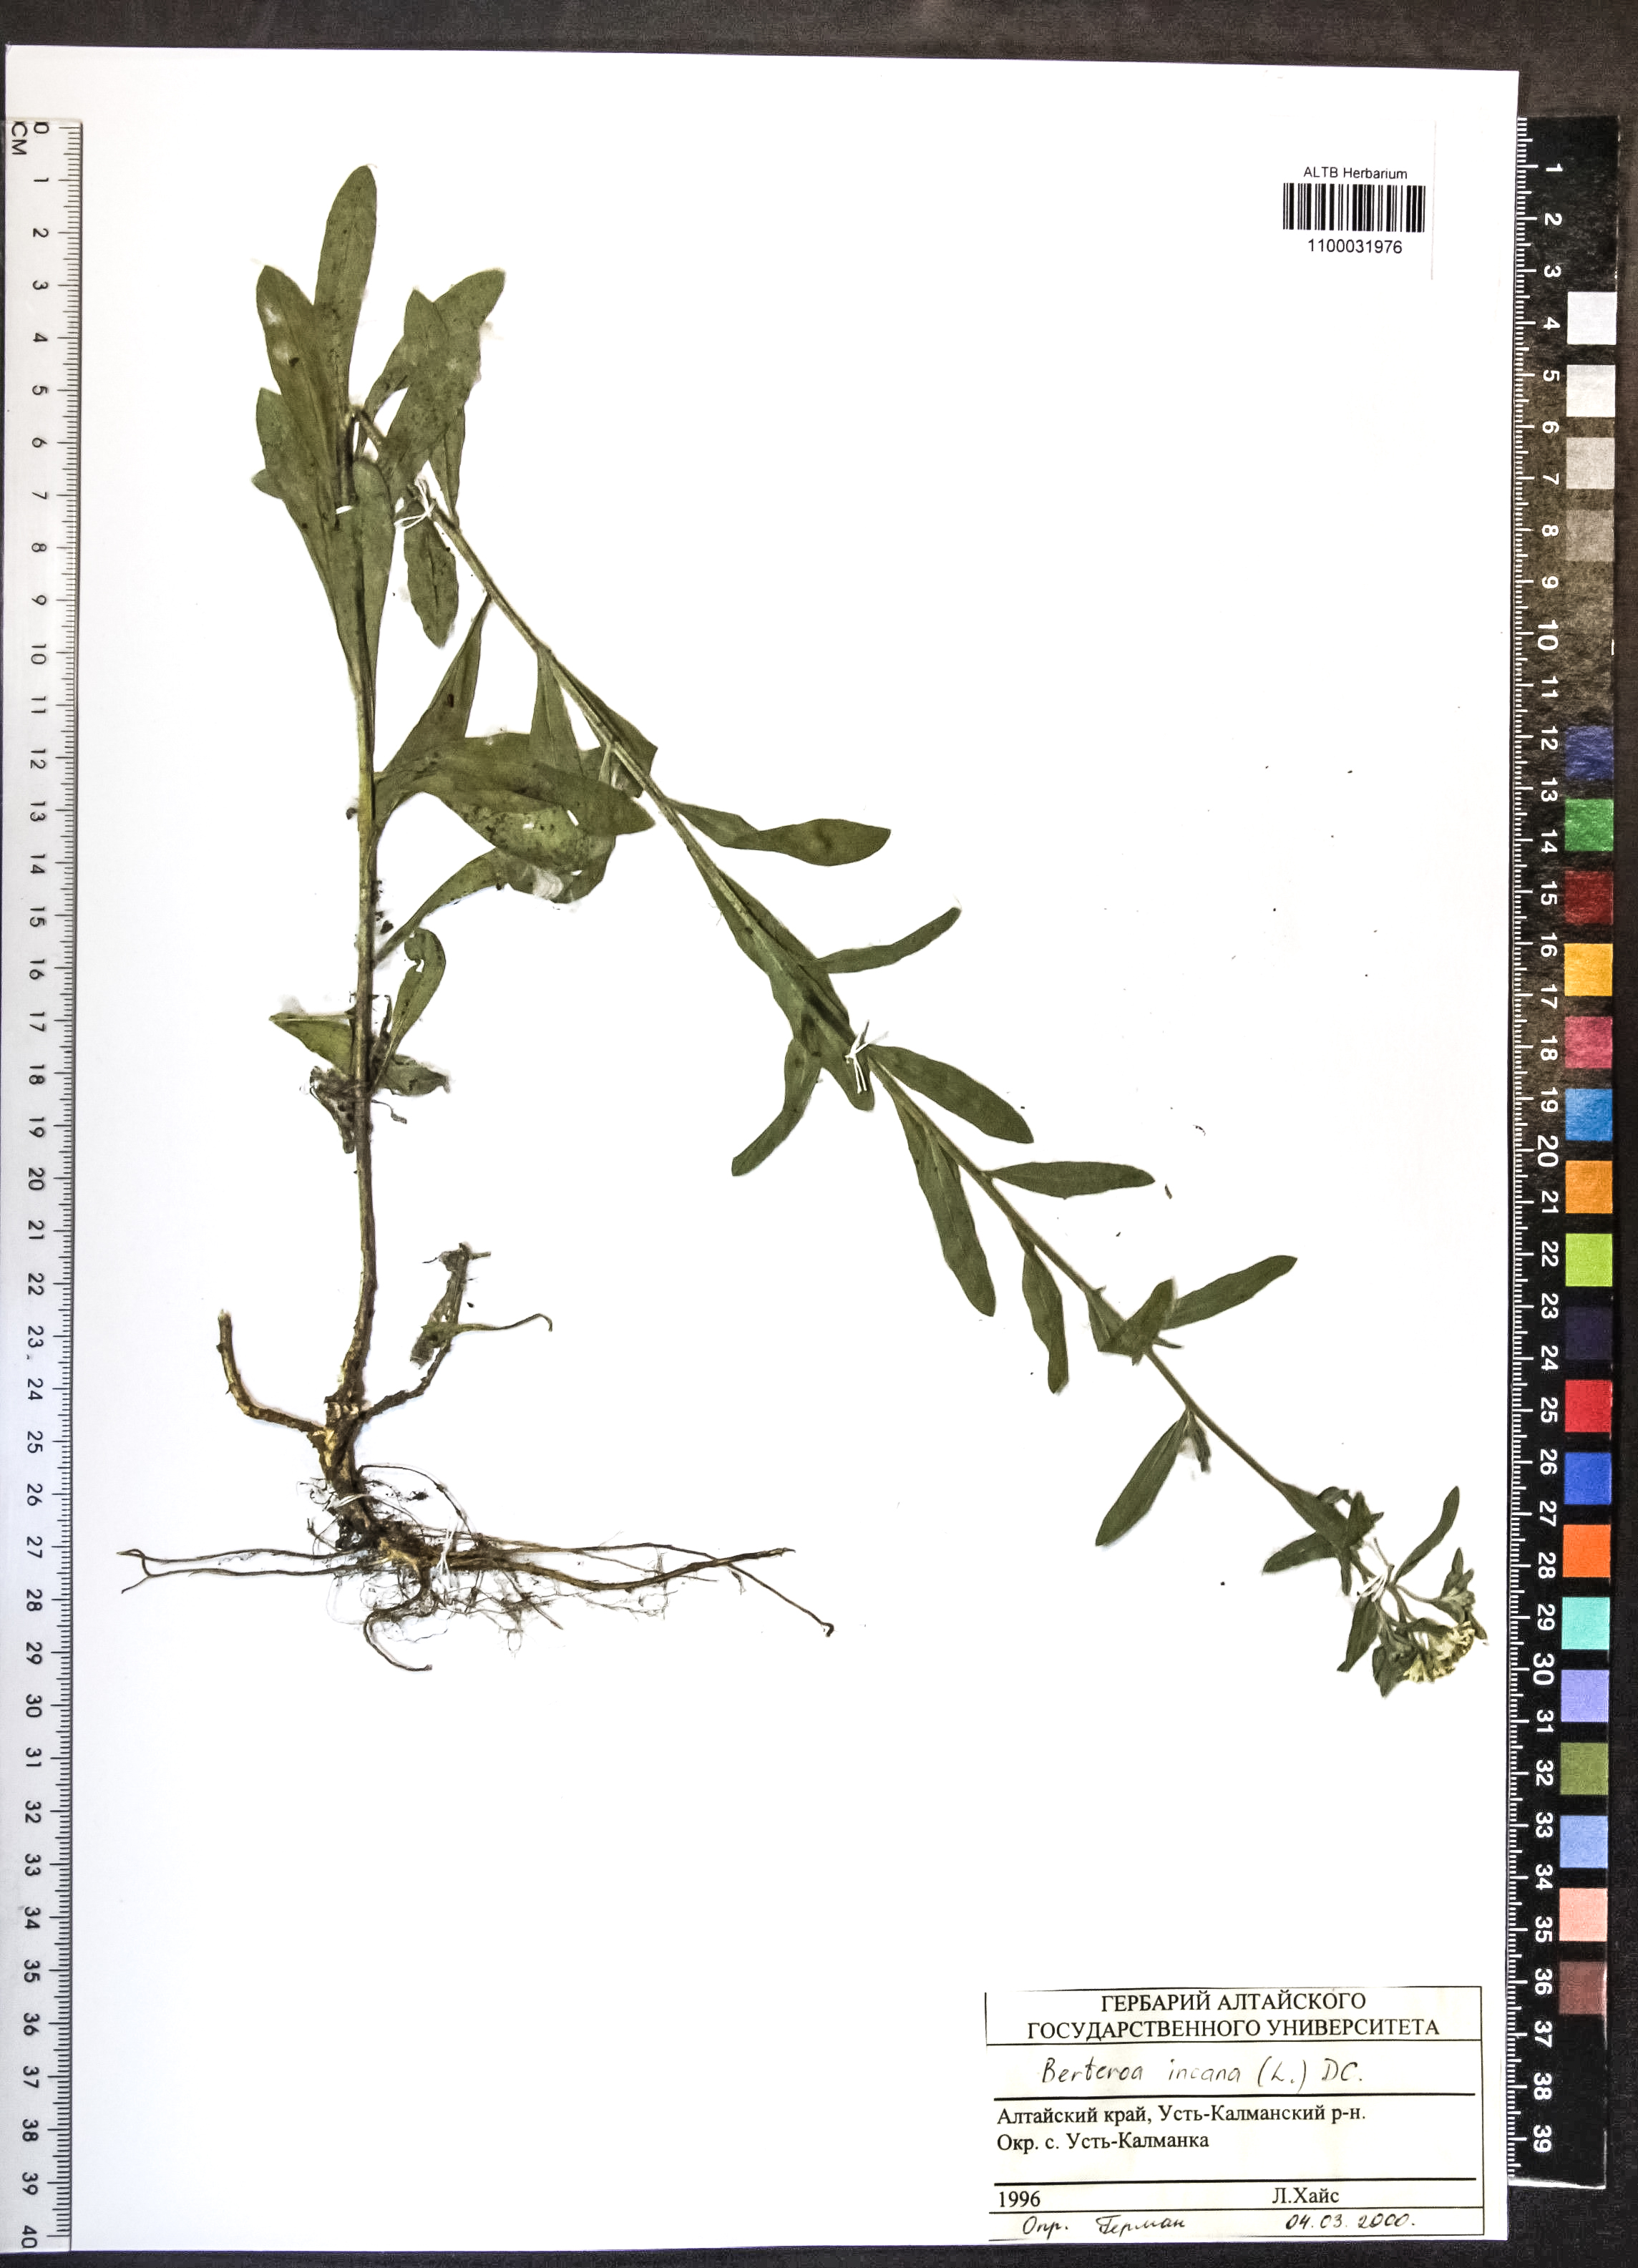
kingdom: Plantae
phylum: Tracheophyta
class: Magnoliopsida
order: Brassicales
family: Brassicaceae
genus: Berteroa
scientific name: Berteroa incana
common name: Hoary alison
